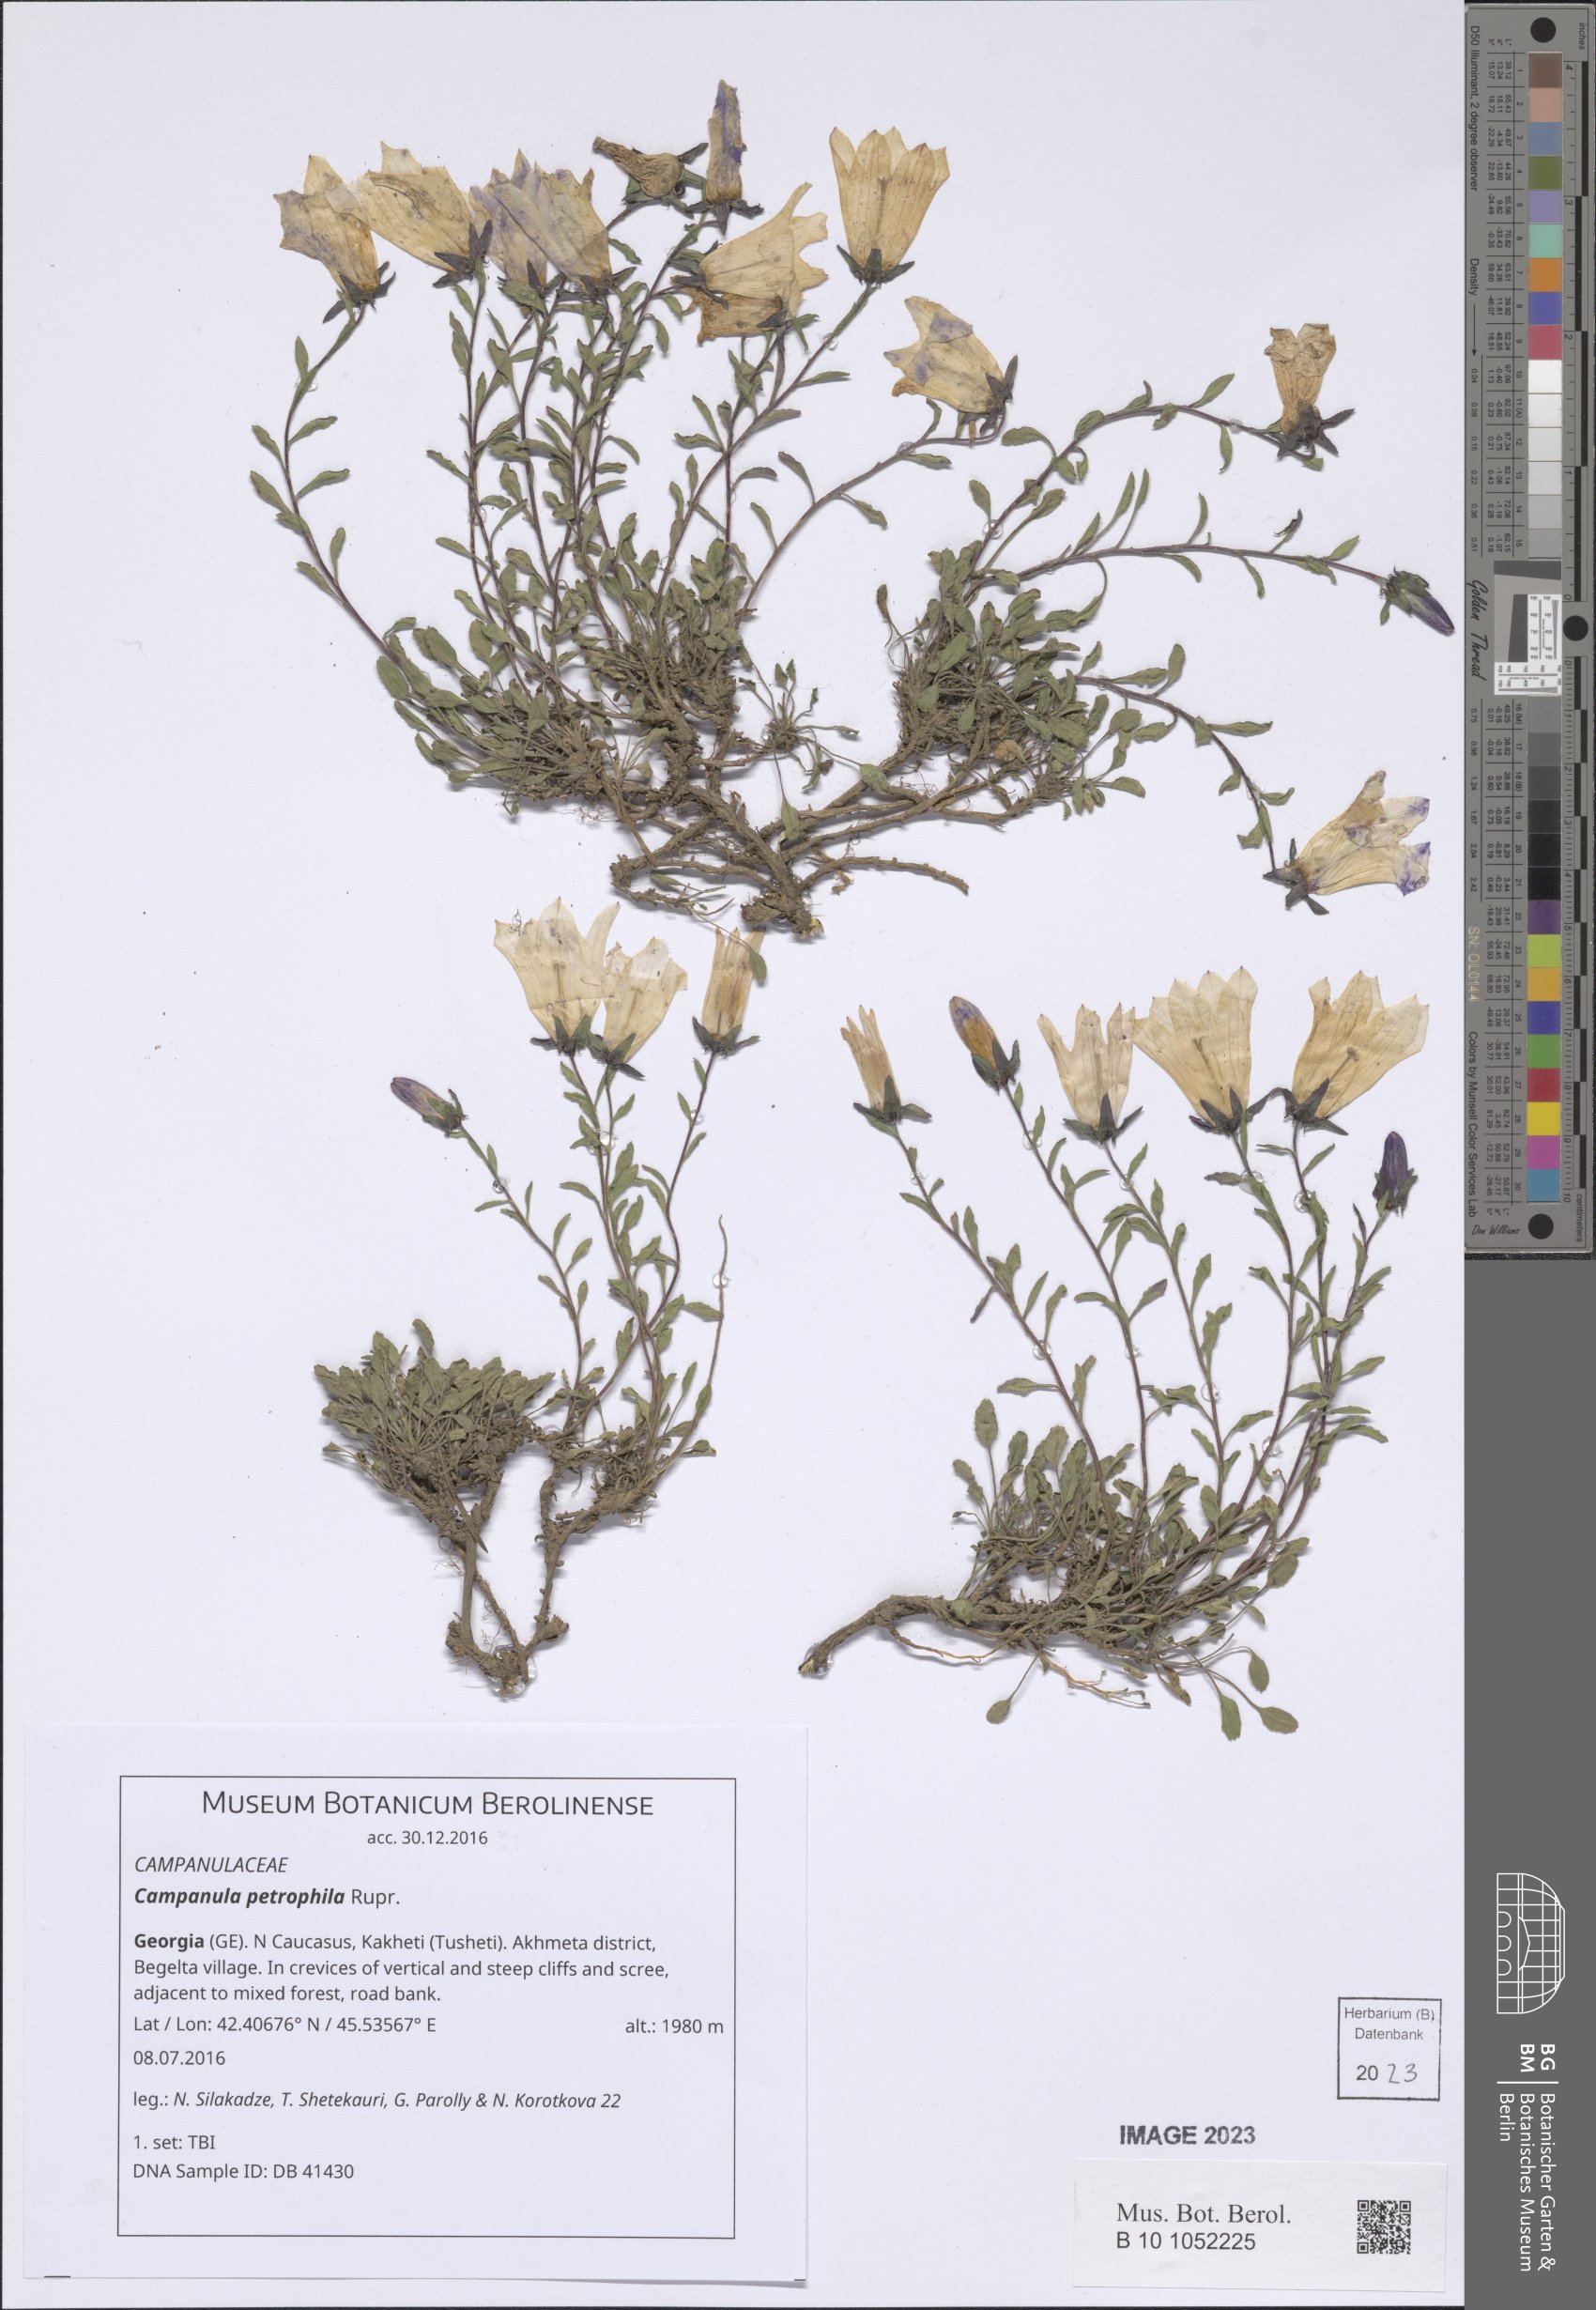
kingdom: Plantae
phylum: Tracheophyta
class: Magnoliopsida
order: Asterales
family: Campanulaceae
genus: Campanula
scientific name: Campanula petrophila
